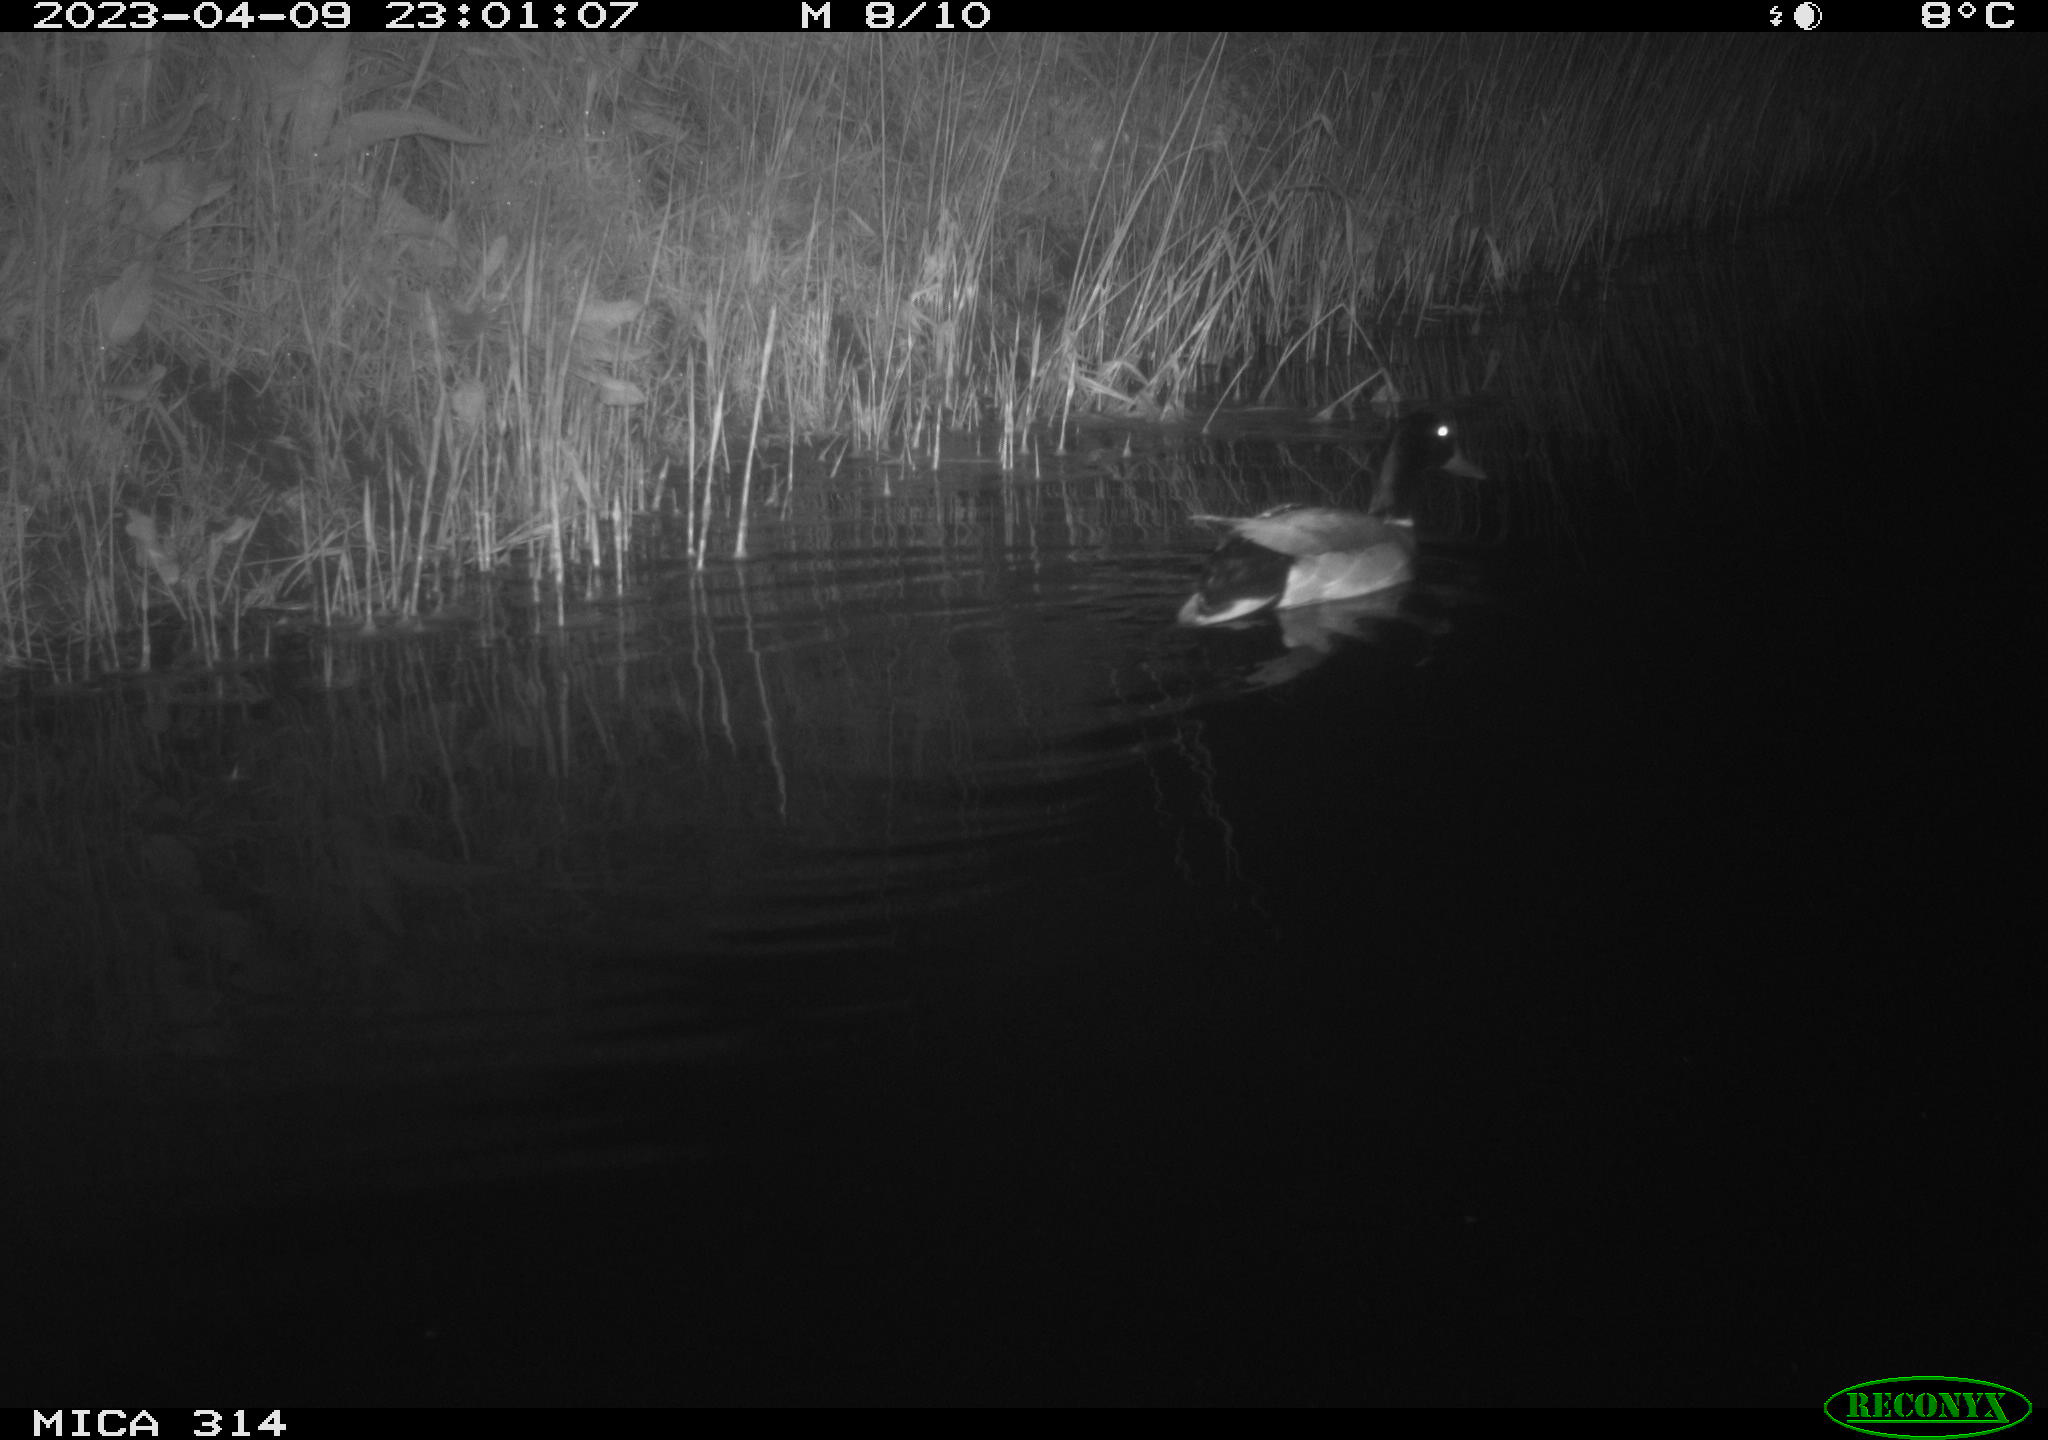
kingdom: Animalia
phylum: Chordata
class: Aves
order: Anseriformes
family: Anatidae
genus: Anas
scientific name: Anas
